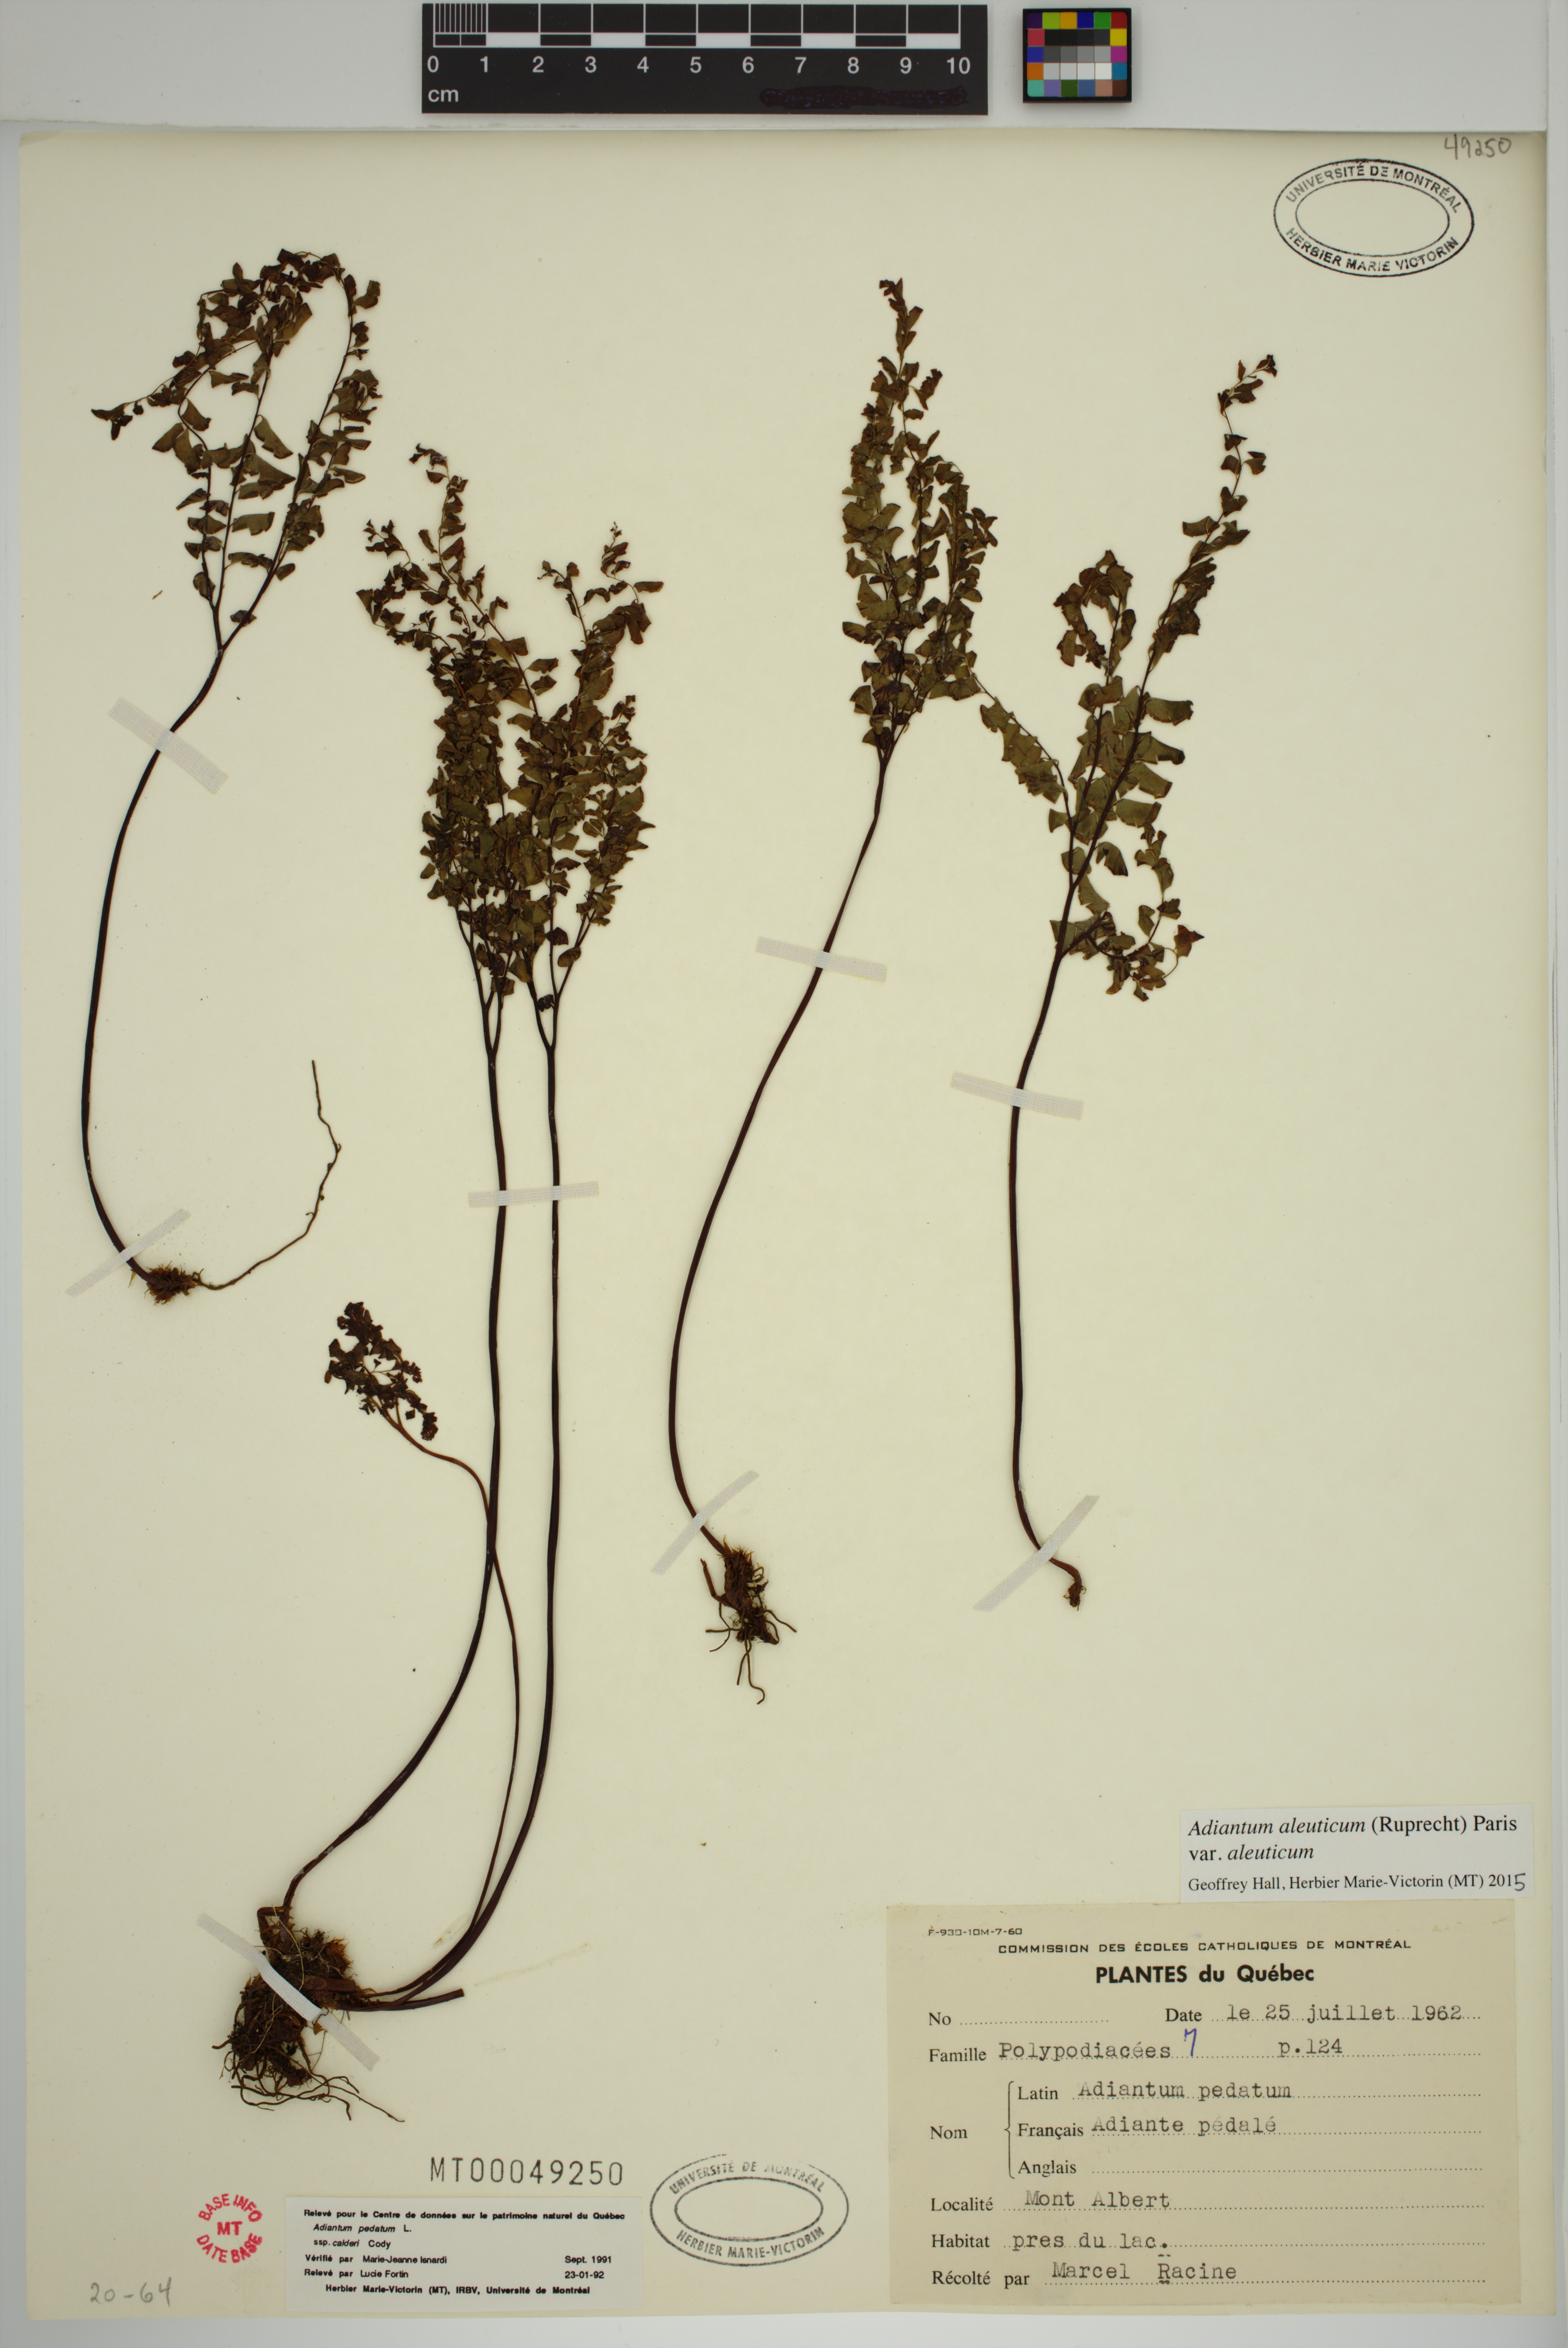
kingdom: Plantae
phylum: Tracheophyta
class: Polypodiopsida
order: Polypodiales
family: Pteridaceae
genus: Adiantum
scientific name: Adiantum aleuticum
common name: Aleutian maidenhair fern
